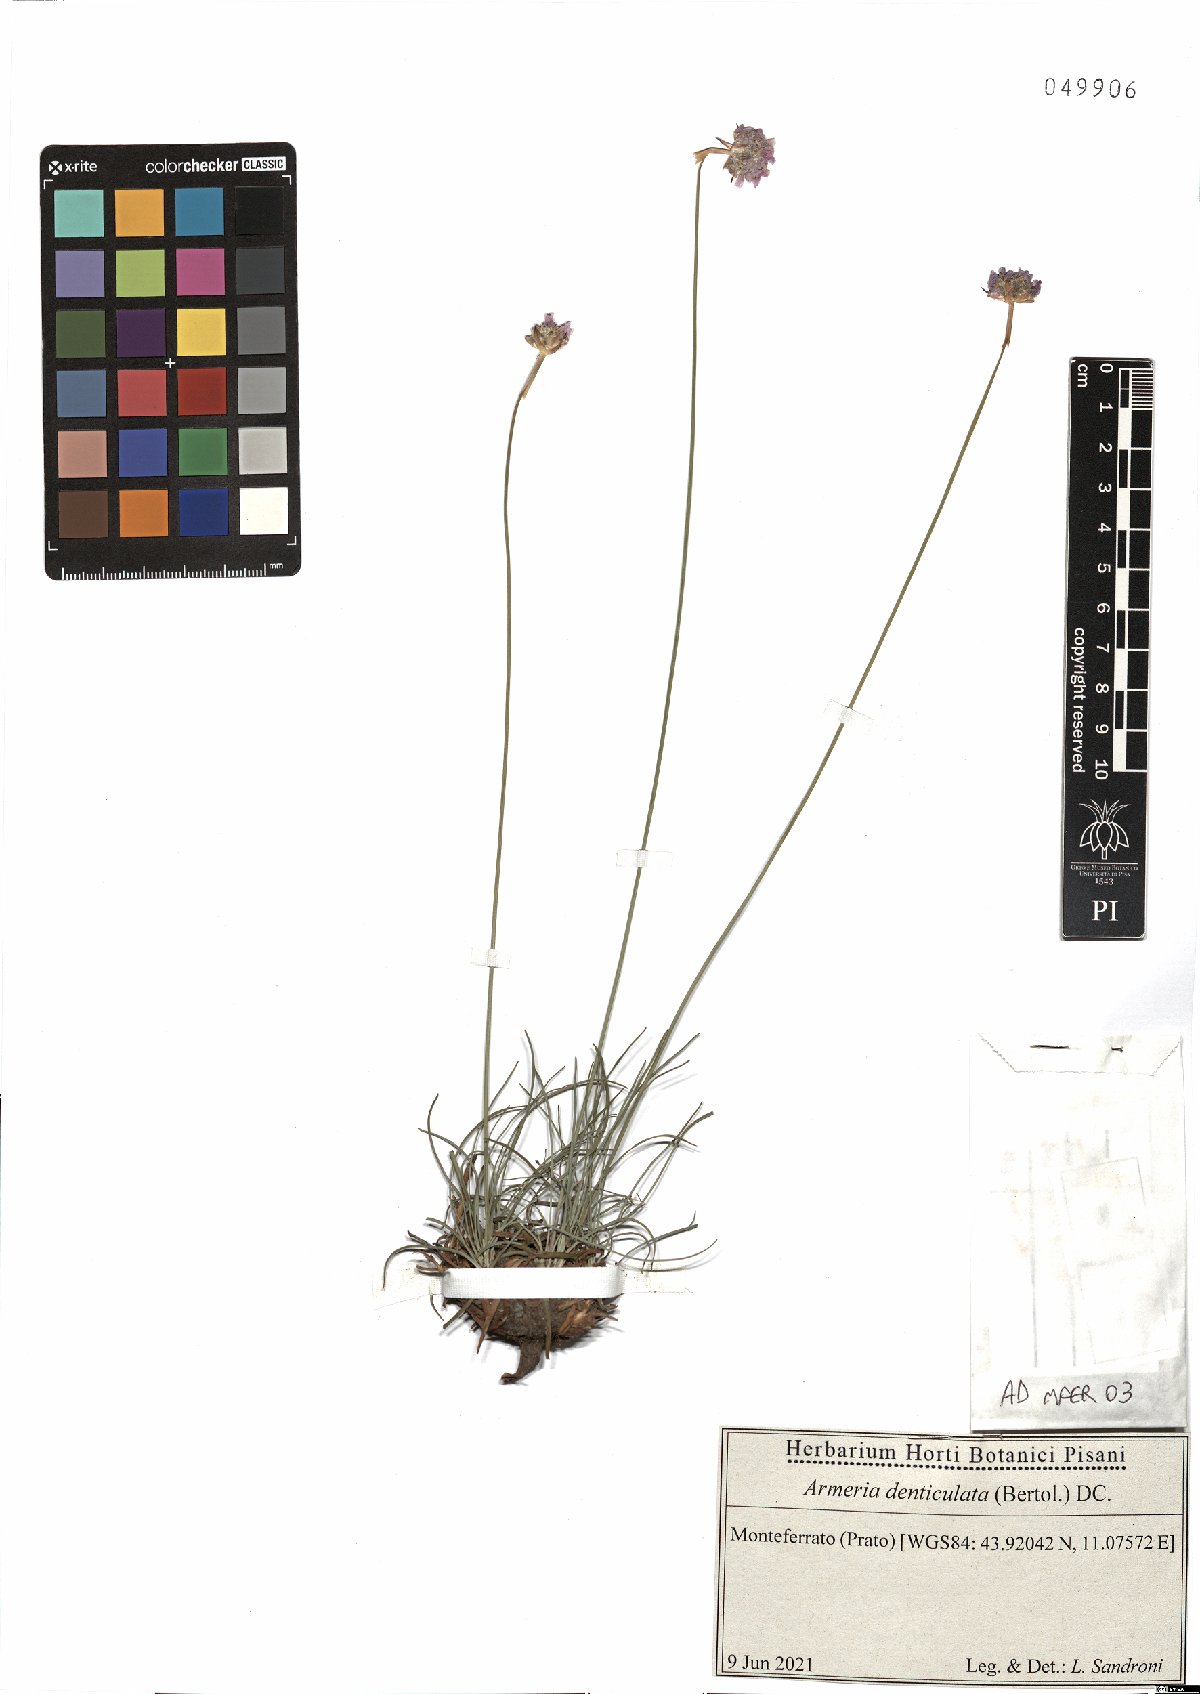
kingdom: Plantae
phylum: Tracheophyta
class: Magnoliopsida
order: Caryophyllales
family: Plumbaginaceae
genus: Armeria
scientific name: Armeria denticulata
